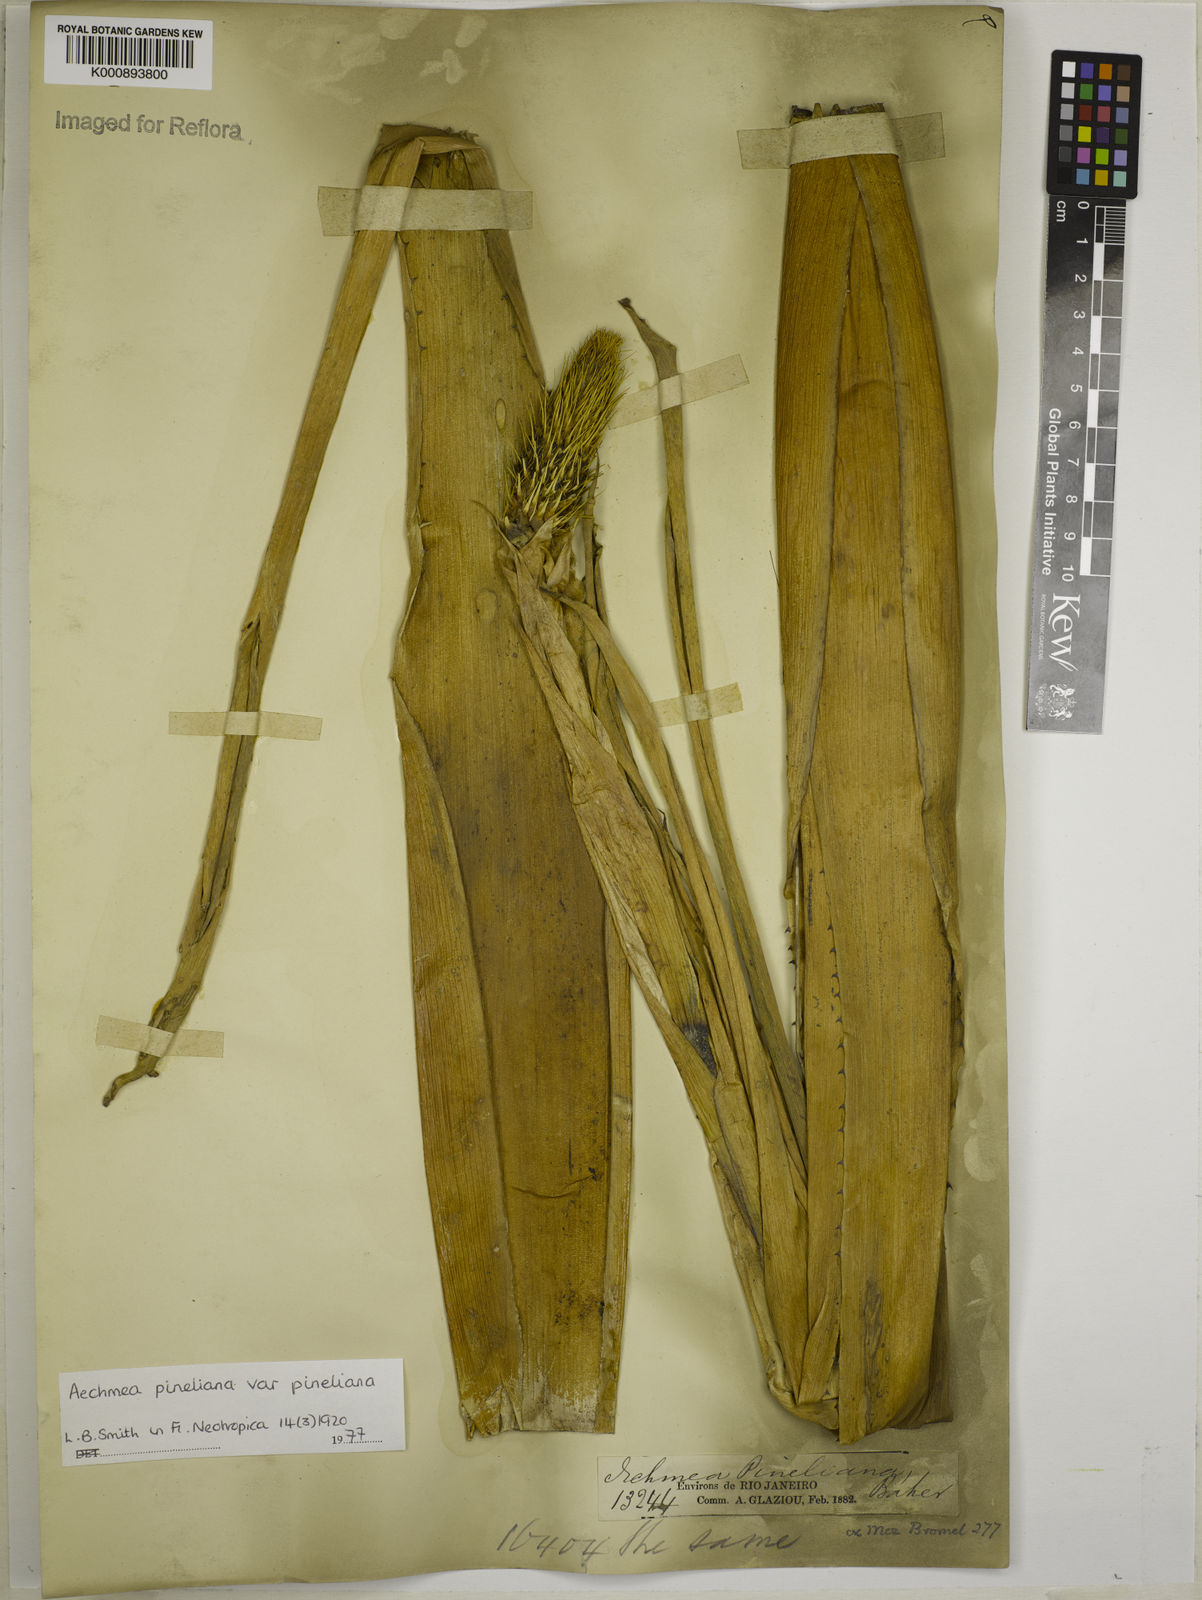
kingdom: Plantae
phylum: Tracheophyta
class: Liliopsida
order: Poales
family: Bromeliaceae
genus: Aechmea
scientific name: Aechmea pineliana
